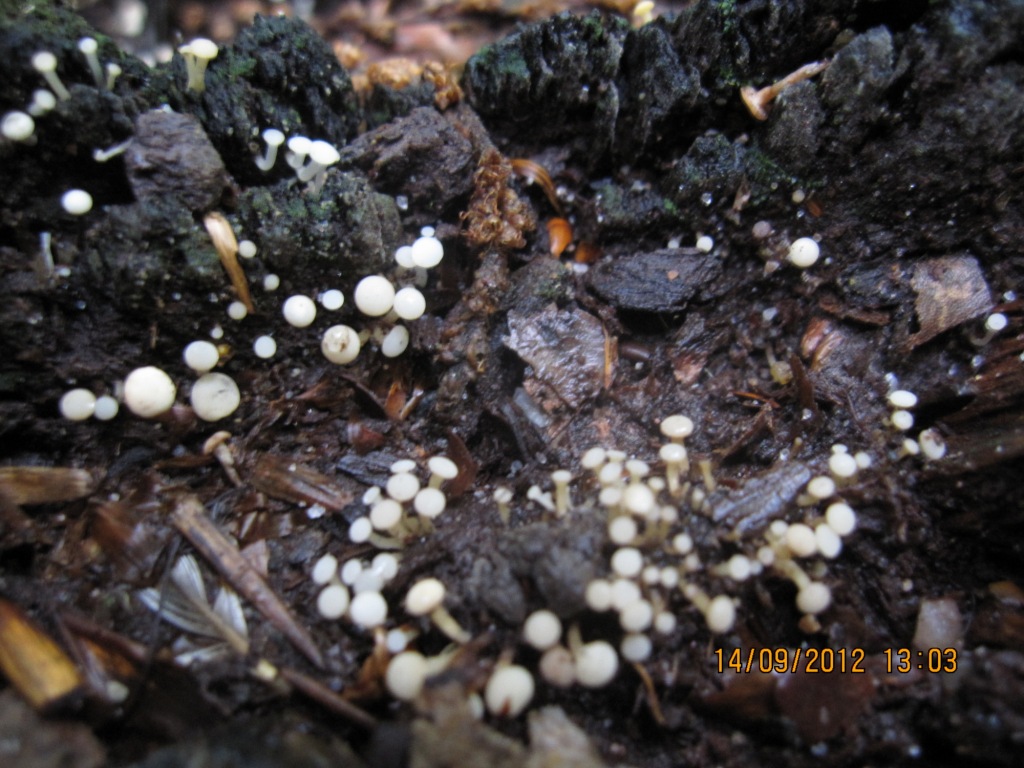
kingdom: Fungi
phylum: Ascomycota
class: Leotiomycetes
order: Helotiales
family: Tricladiaceae
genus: Cudoniella
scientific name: Cudoniella acicularis
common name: ege-dyndskive
